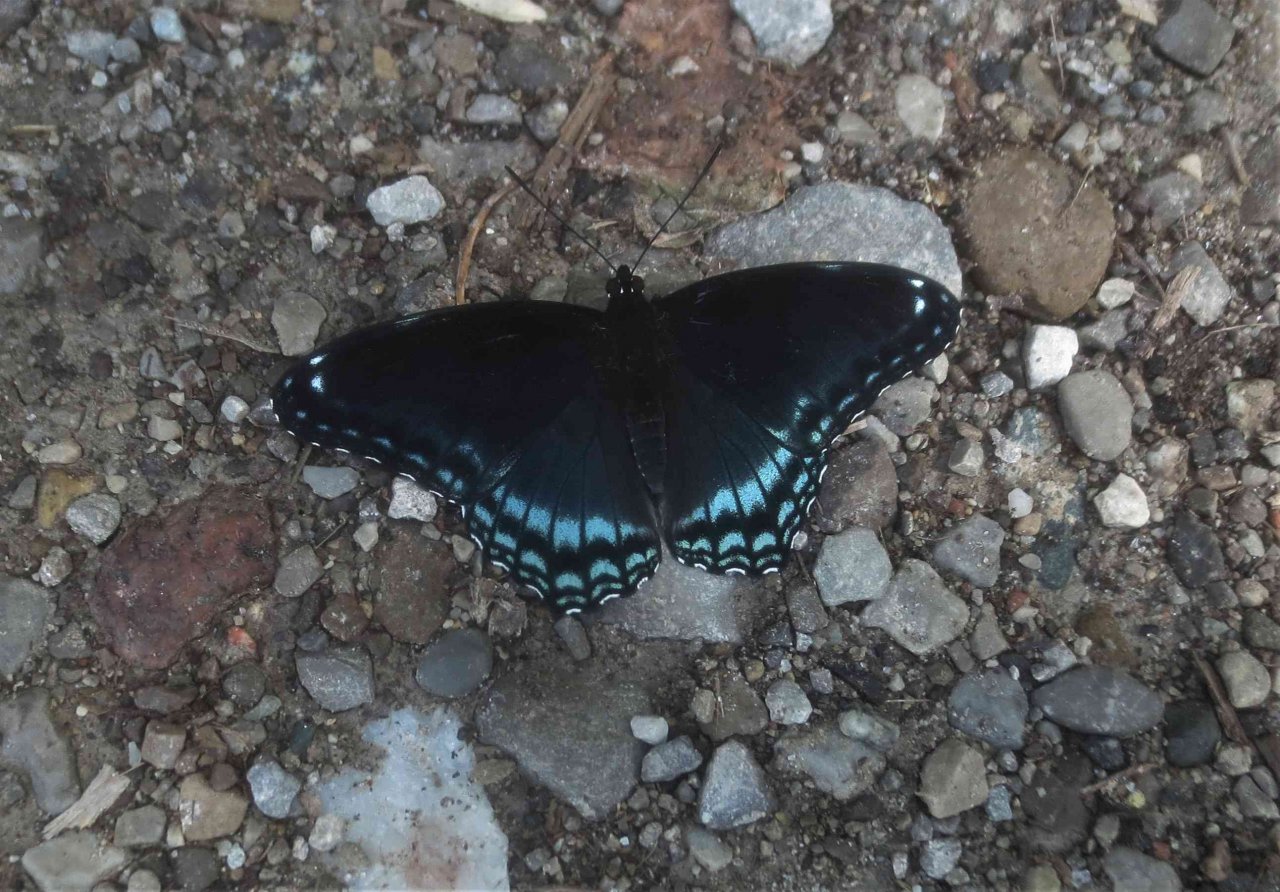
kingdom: Animalia
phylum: Arthropoda
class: Insecta
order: Lepidoptera
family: Nymphalidae
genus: Limenitis
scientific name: Limenitis astyanax
